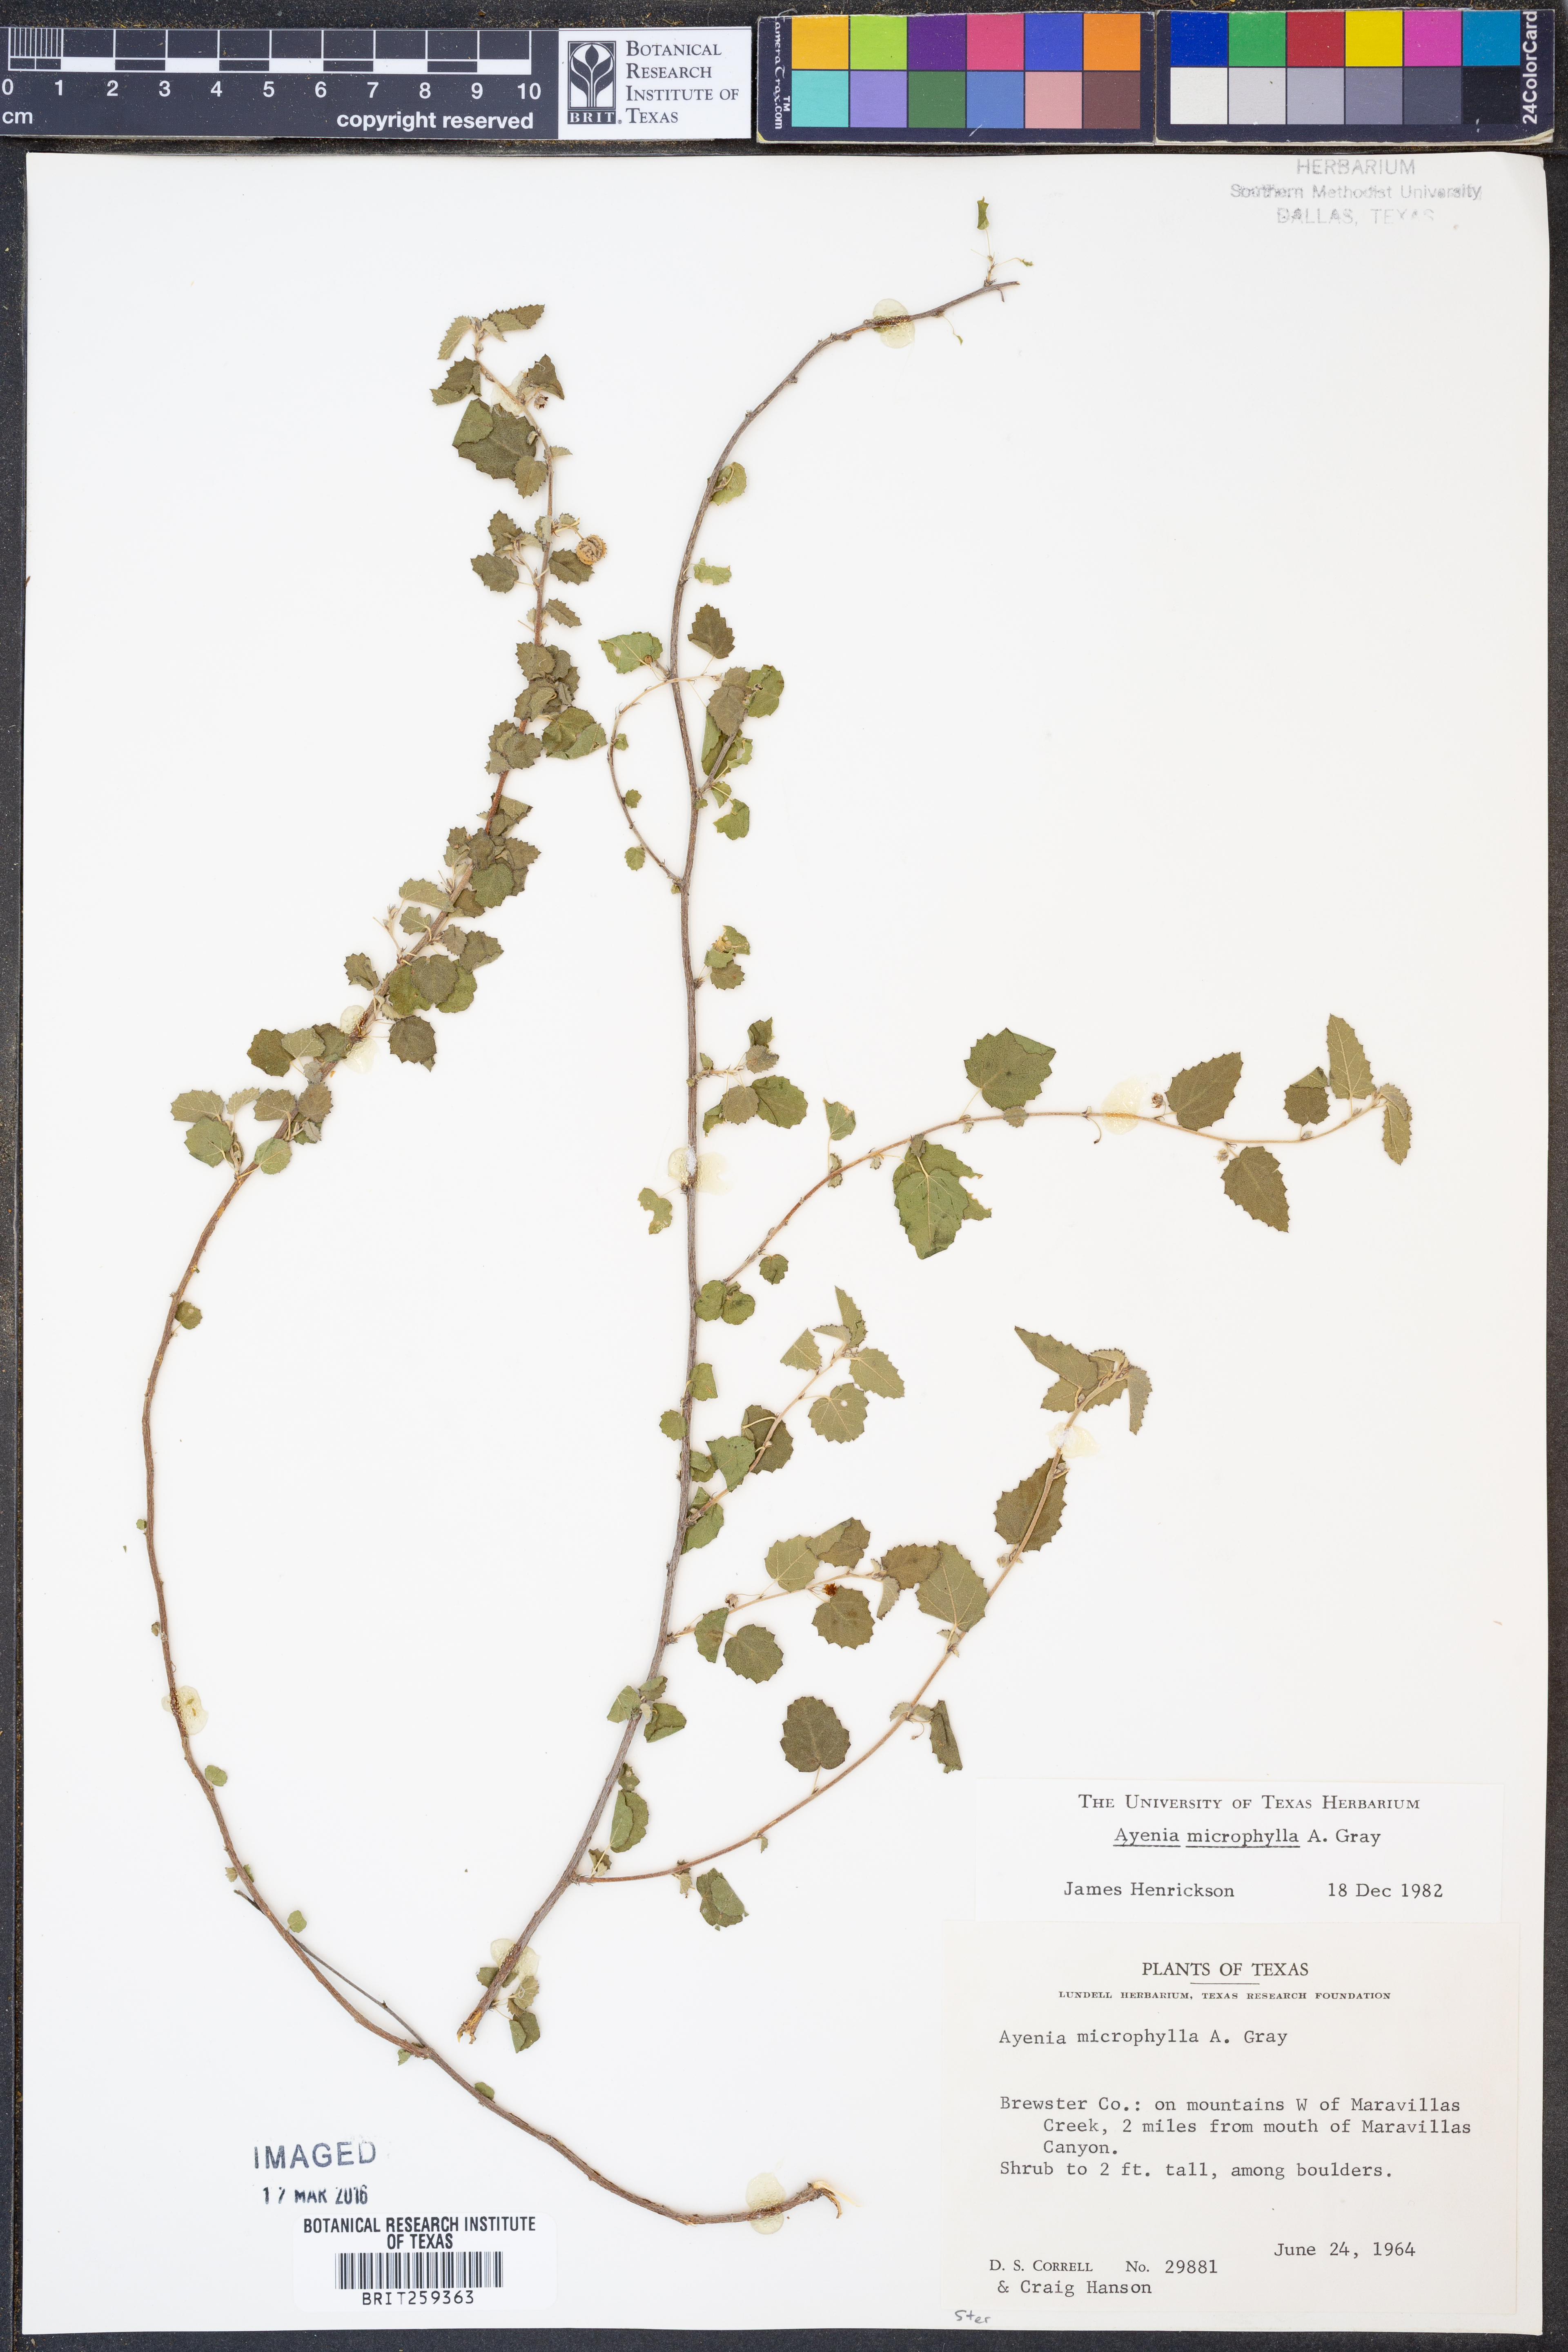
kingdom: Plantae
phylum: Tracheophyta
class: Magnoliopsida
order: Malvales
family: Malvaceae
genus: Ayenia
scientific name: Ayenia microphylla
